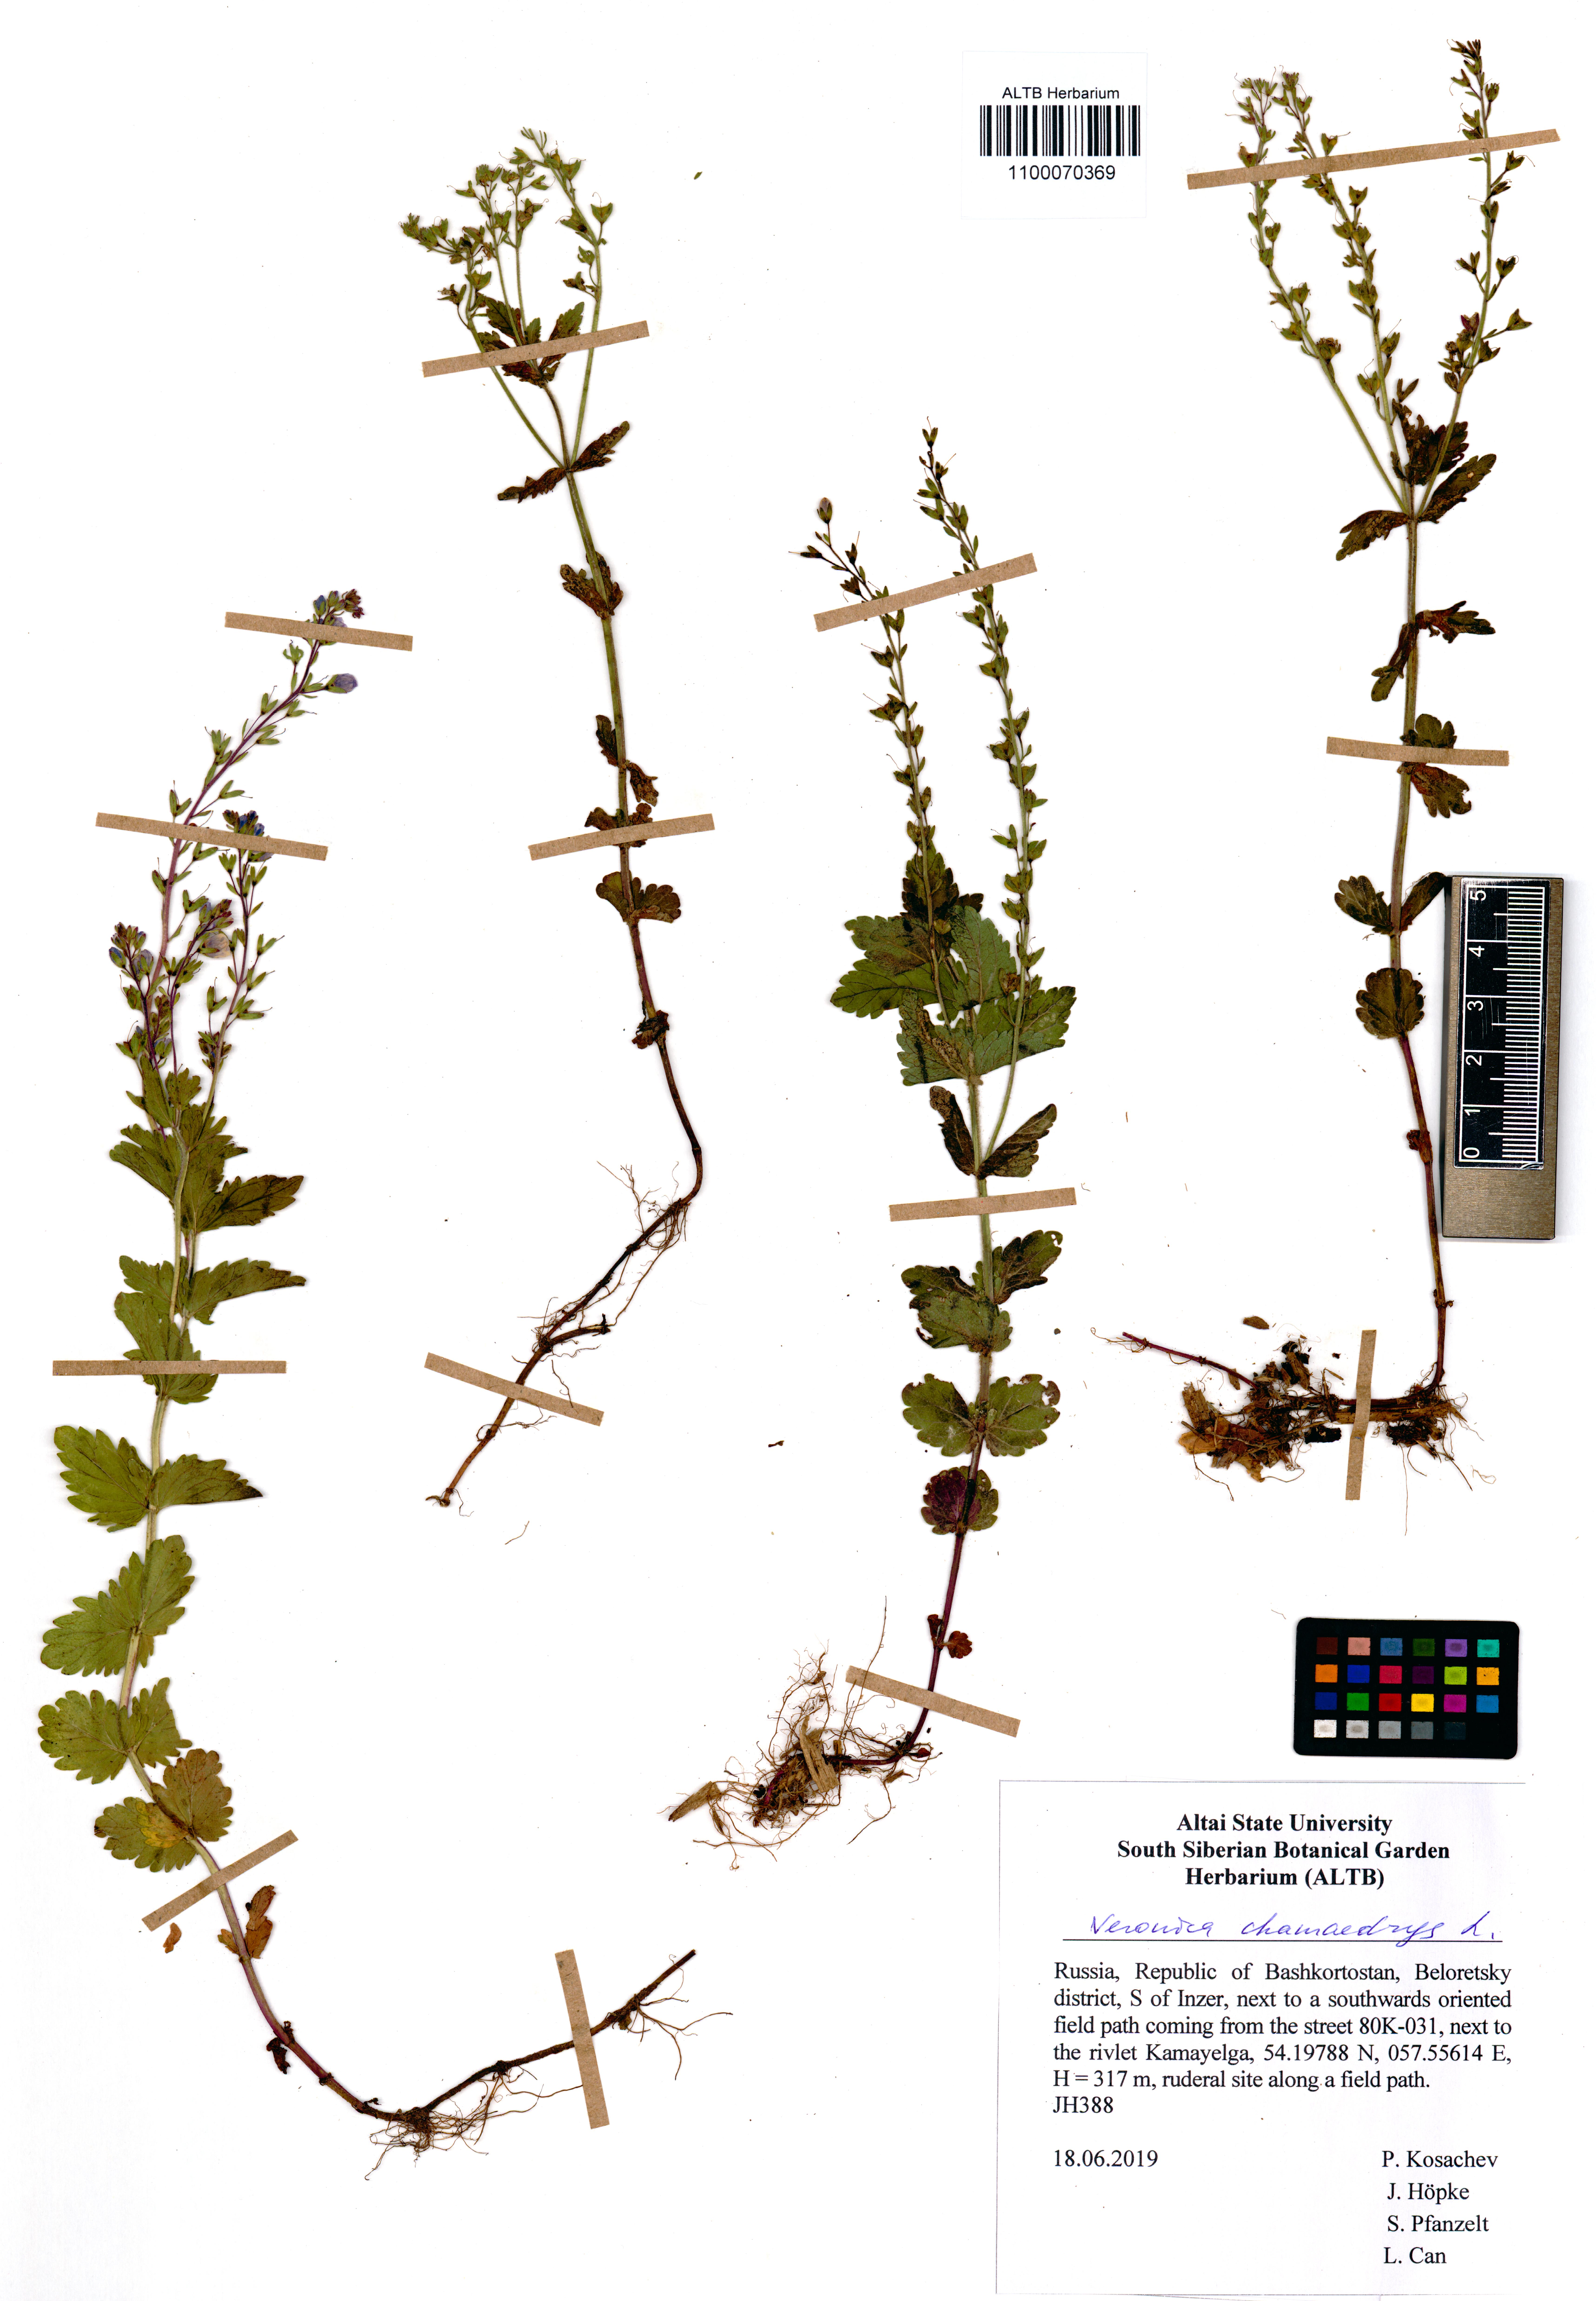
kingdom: Plantae
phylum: Tracheophyta
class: Magnoliopsida
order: Lamiales
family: Plantaginaceae
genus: Veronica
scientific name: Veronica chamaedrys
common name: Germander speedwell
